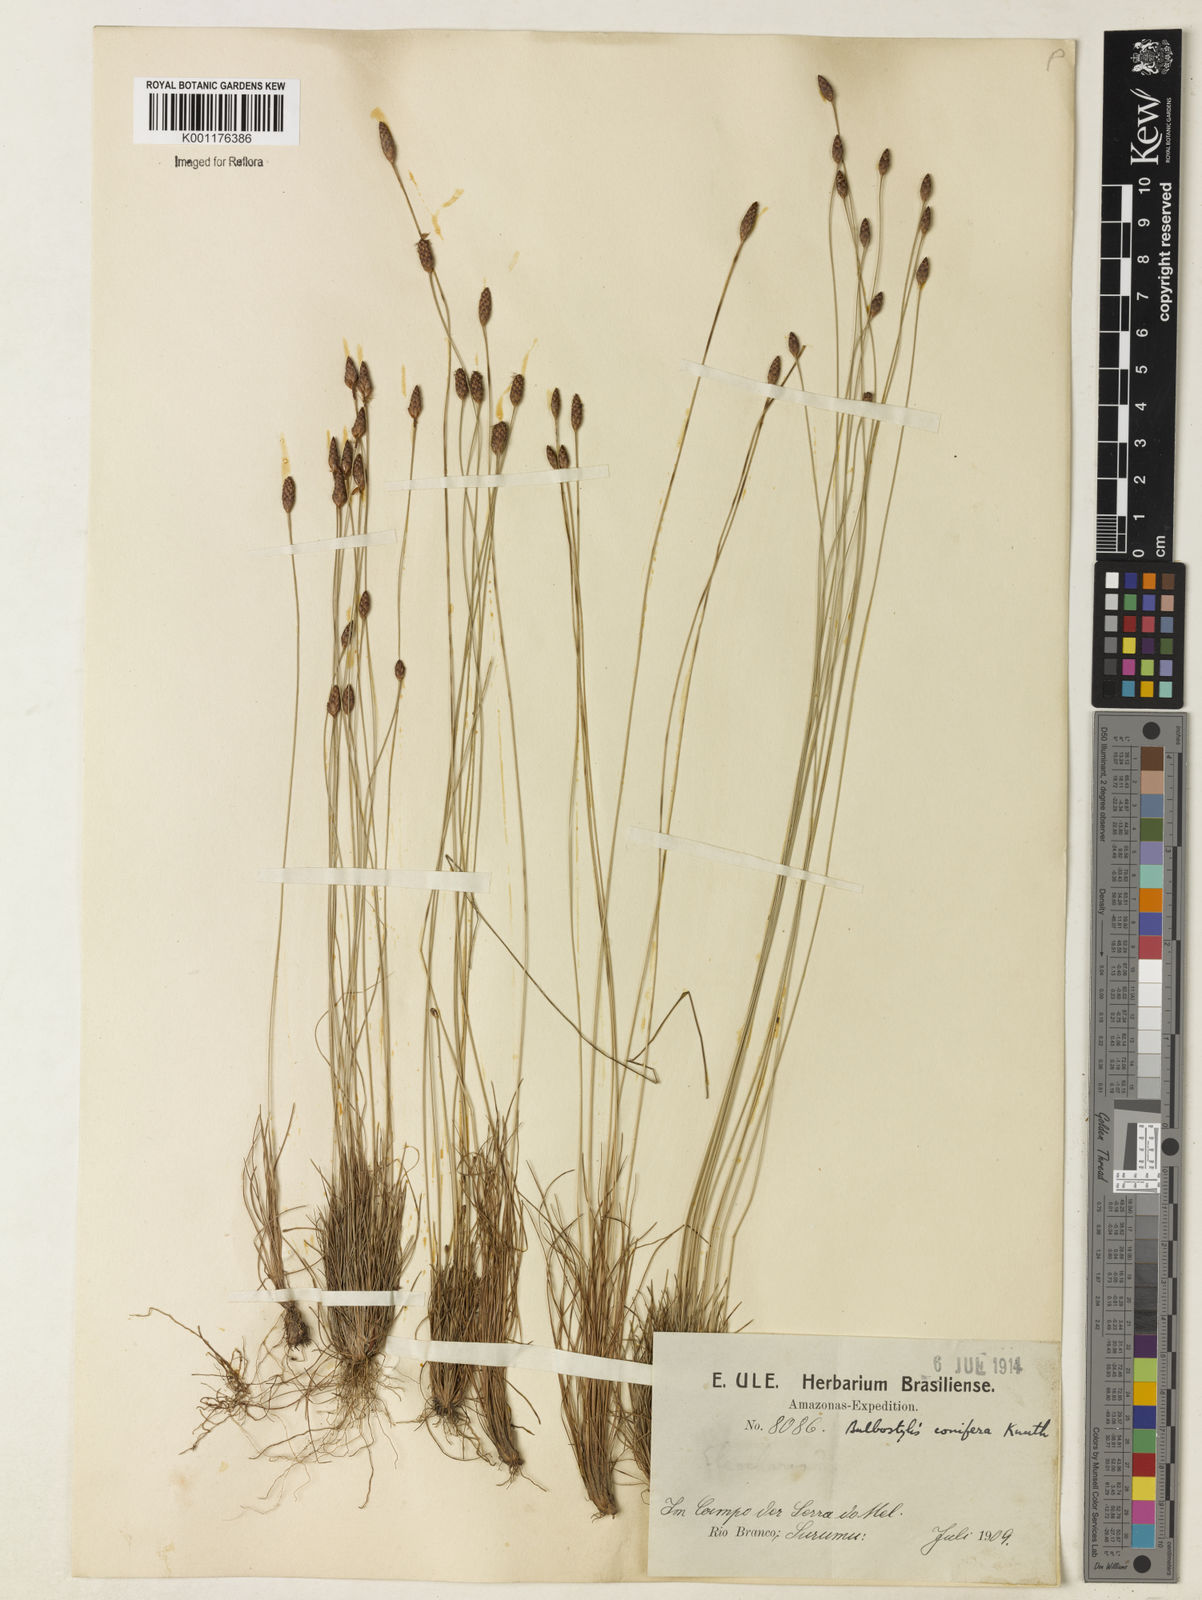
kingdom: Plantae
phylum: Tracheophyta
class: Liliopsida
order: Poales
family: Cyperaceae
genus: Bulbostylis
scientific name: Bulbostylis conifera
